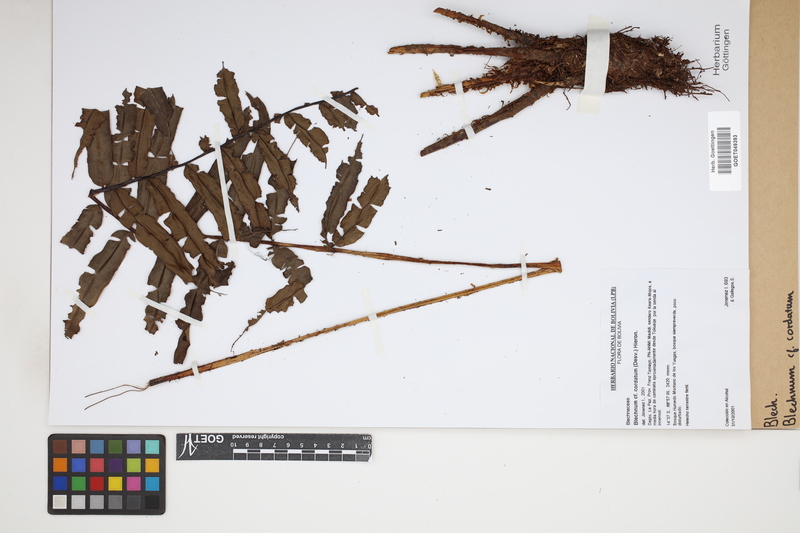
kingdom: Plantae
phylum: Tracheophyta
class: Polypodiopsida
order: Polypodiales
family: Blechnaceae
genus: Parablechnum
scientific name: Parablechnum cordatum
